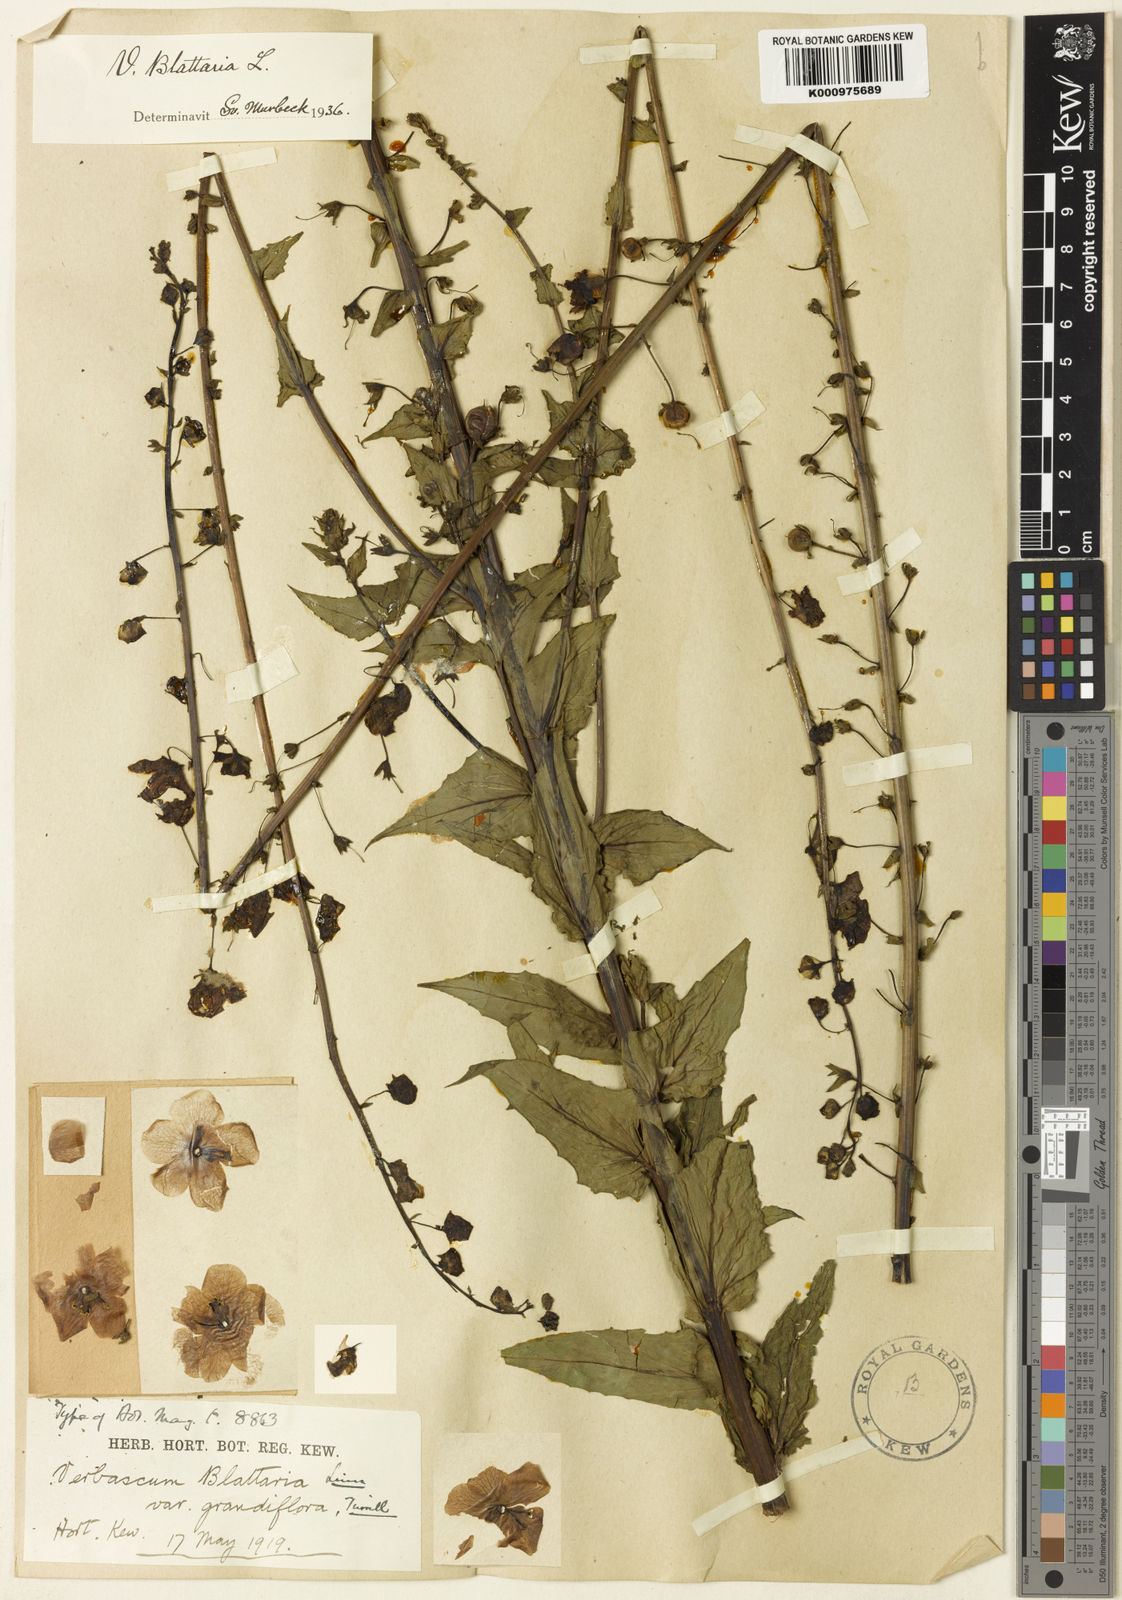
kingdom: Plantae
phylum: Tracheophyta
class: Magnoliopsida
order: Lamiales
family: Scrophulariaceae
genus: Verbascum
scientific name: Verbascum blattaria
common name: Moth mullein
